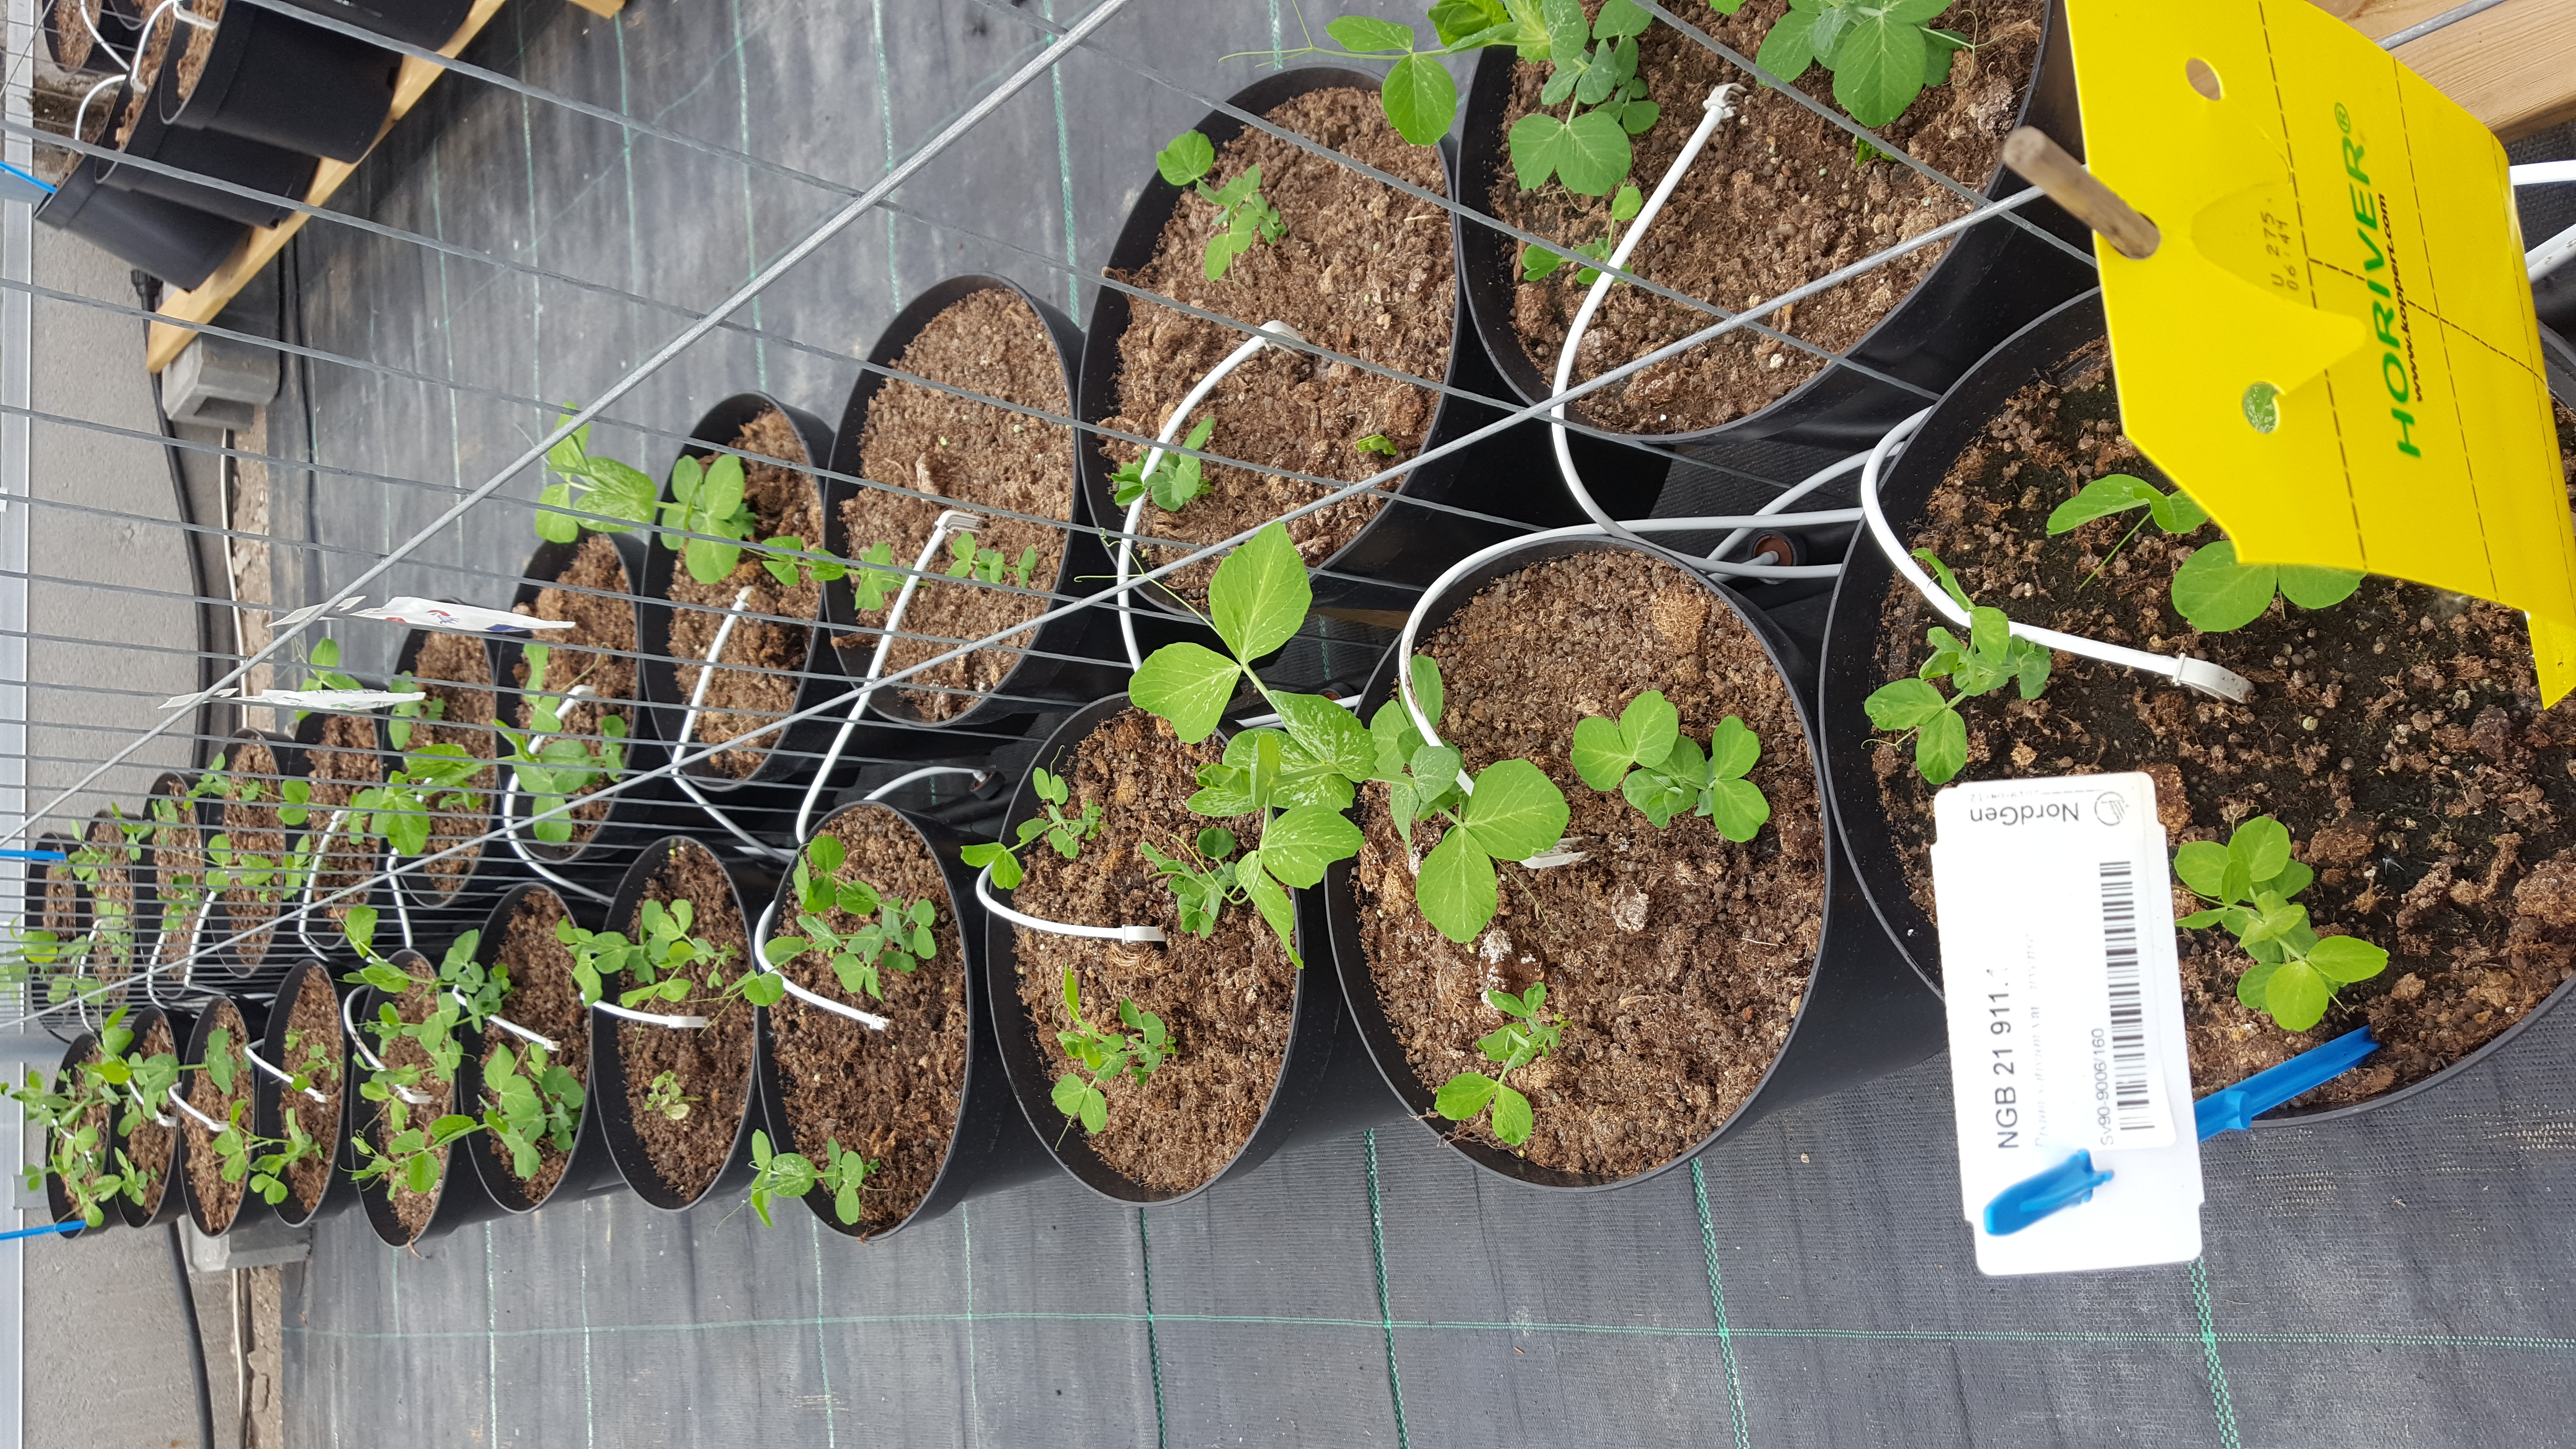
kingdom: Plantae
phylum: Tracheophyta
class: Magnoliopsida
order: Fabales
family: Fabaceae
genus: Lathyrus
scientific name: Lathyrus oleraceus
